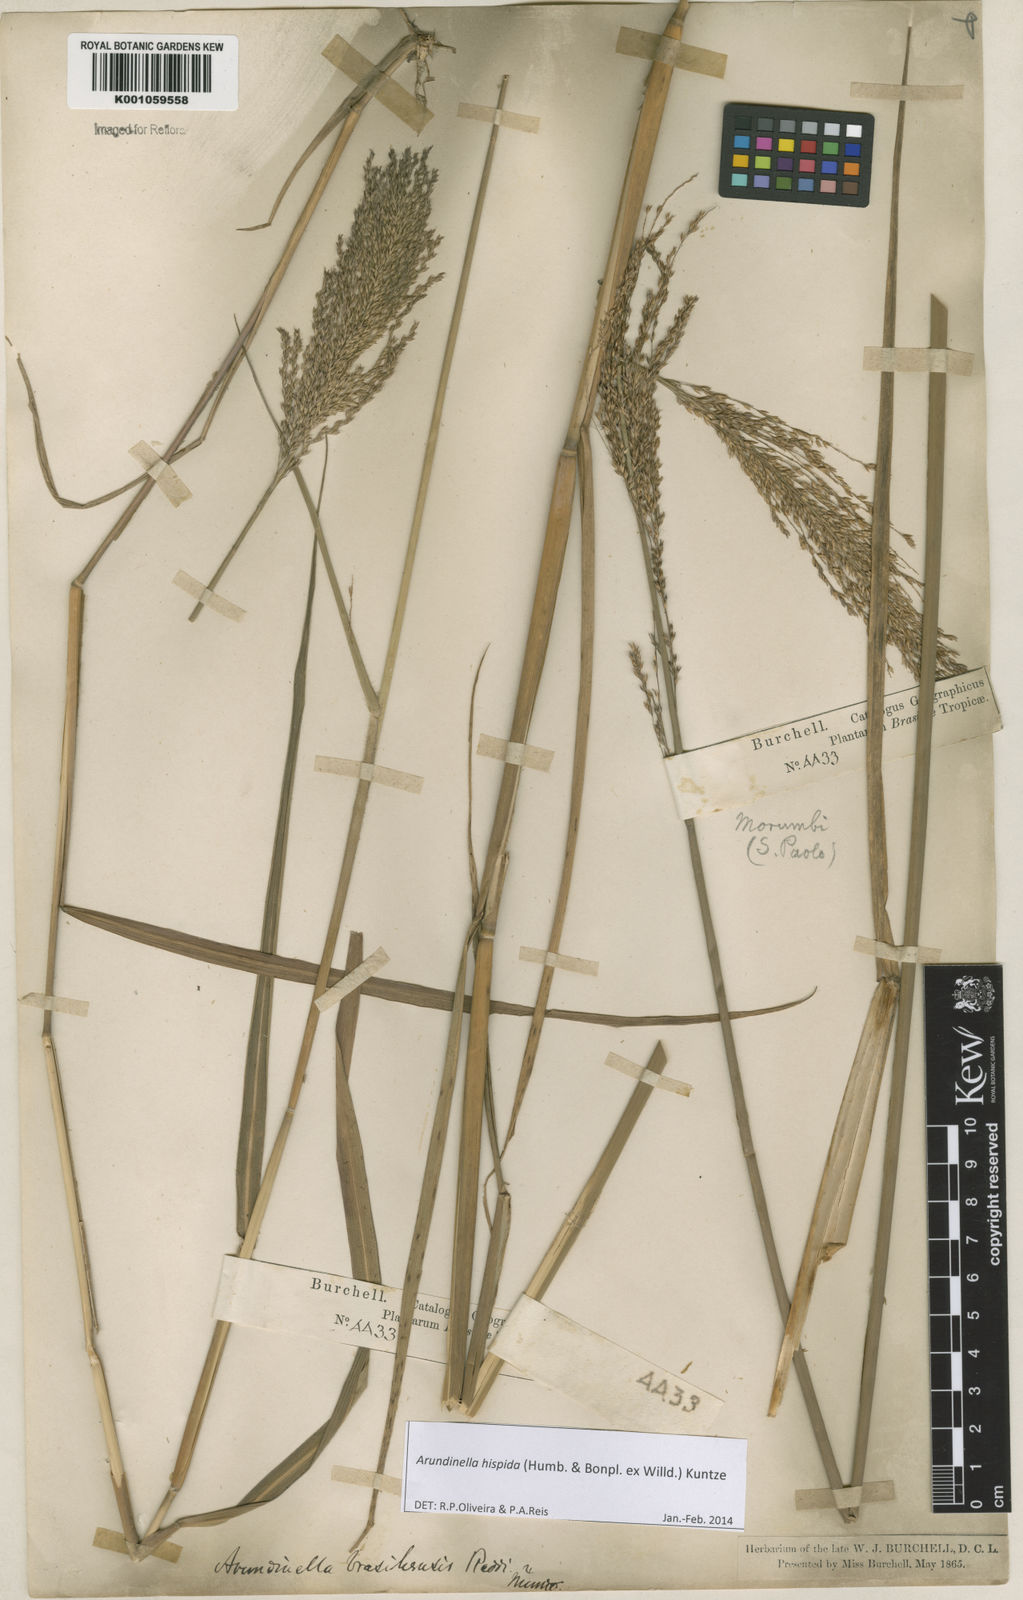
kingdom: Plantae
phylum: Tracheophyta
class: Liliopsida
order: Poales
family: Poaceae
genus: Arundinella
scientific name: Arundinella hispida
